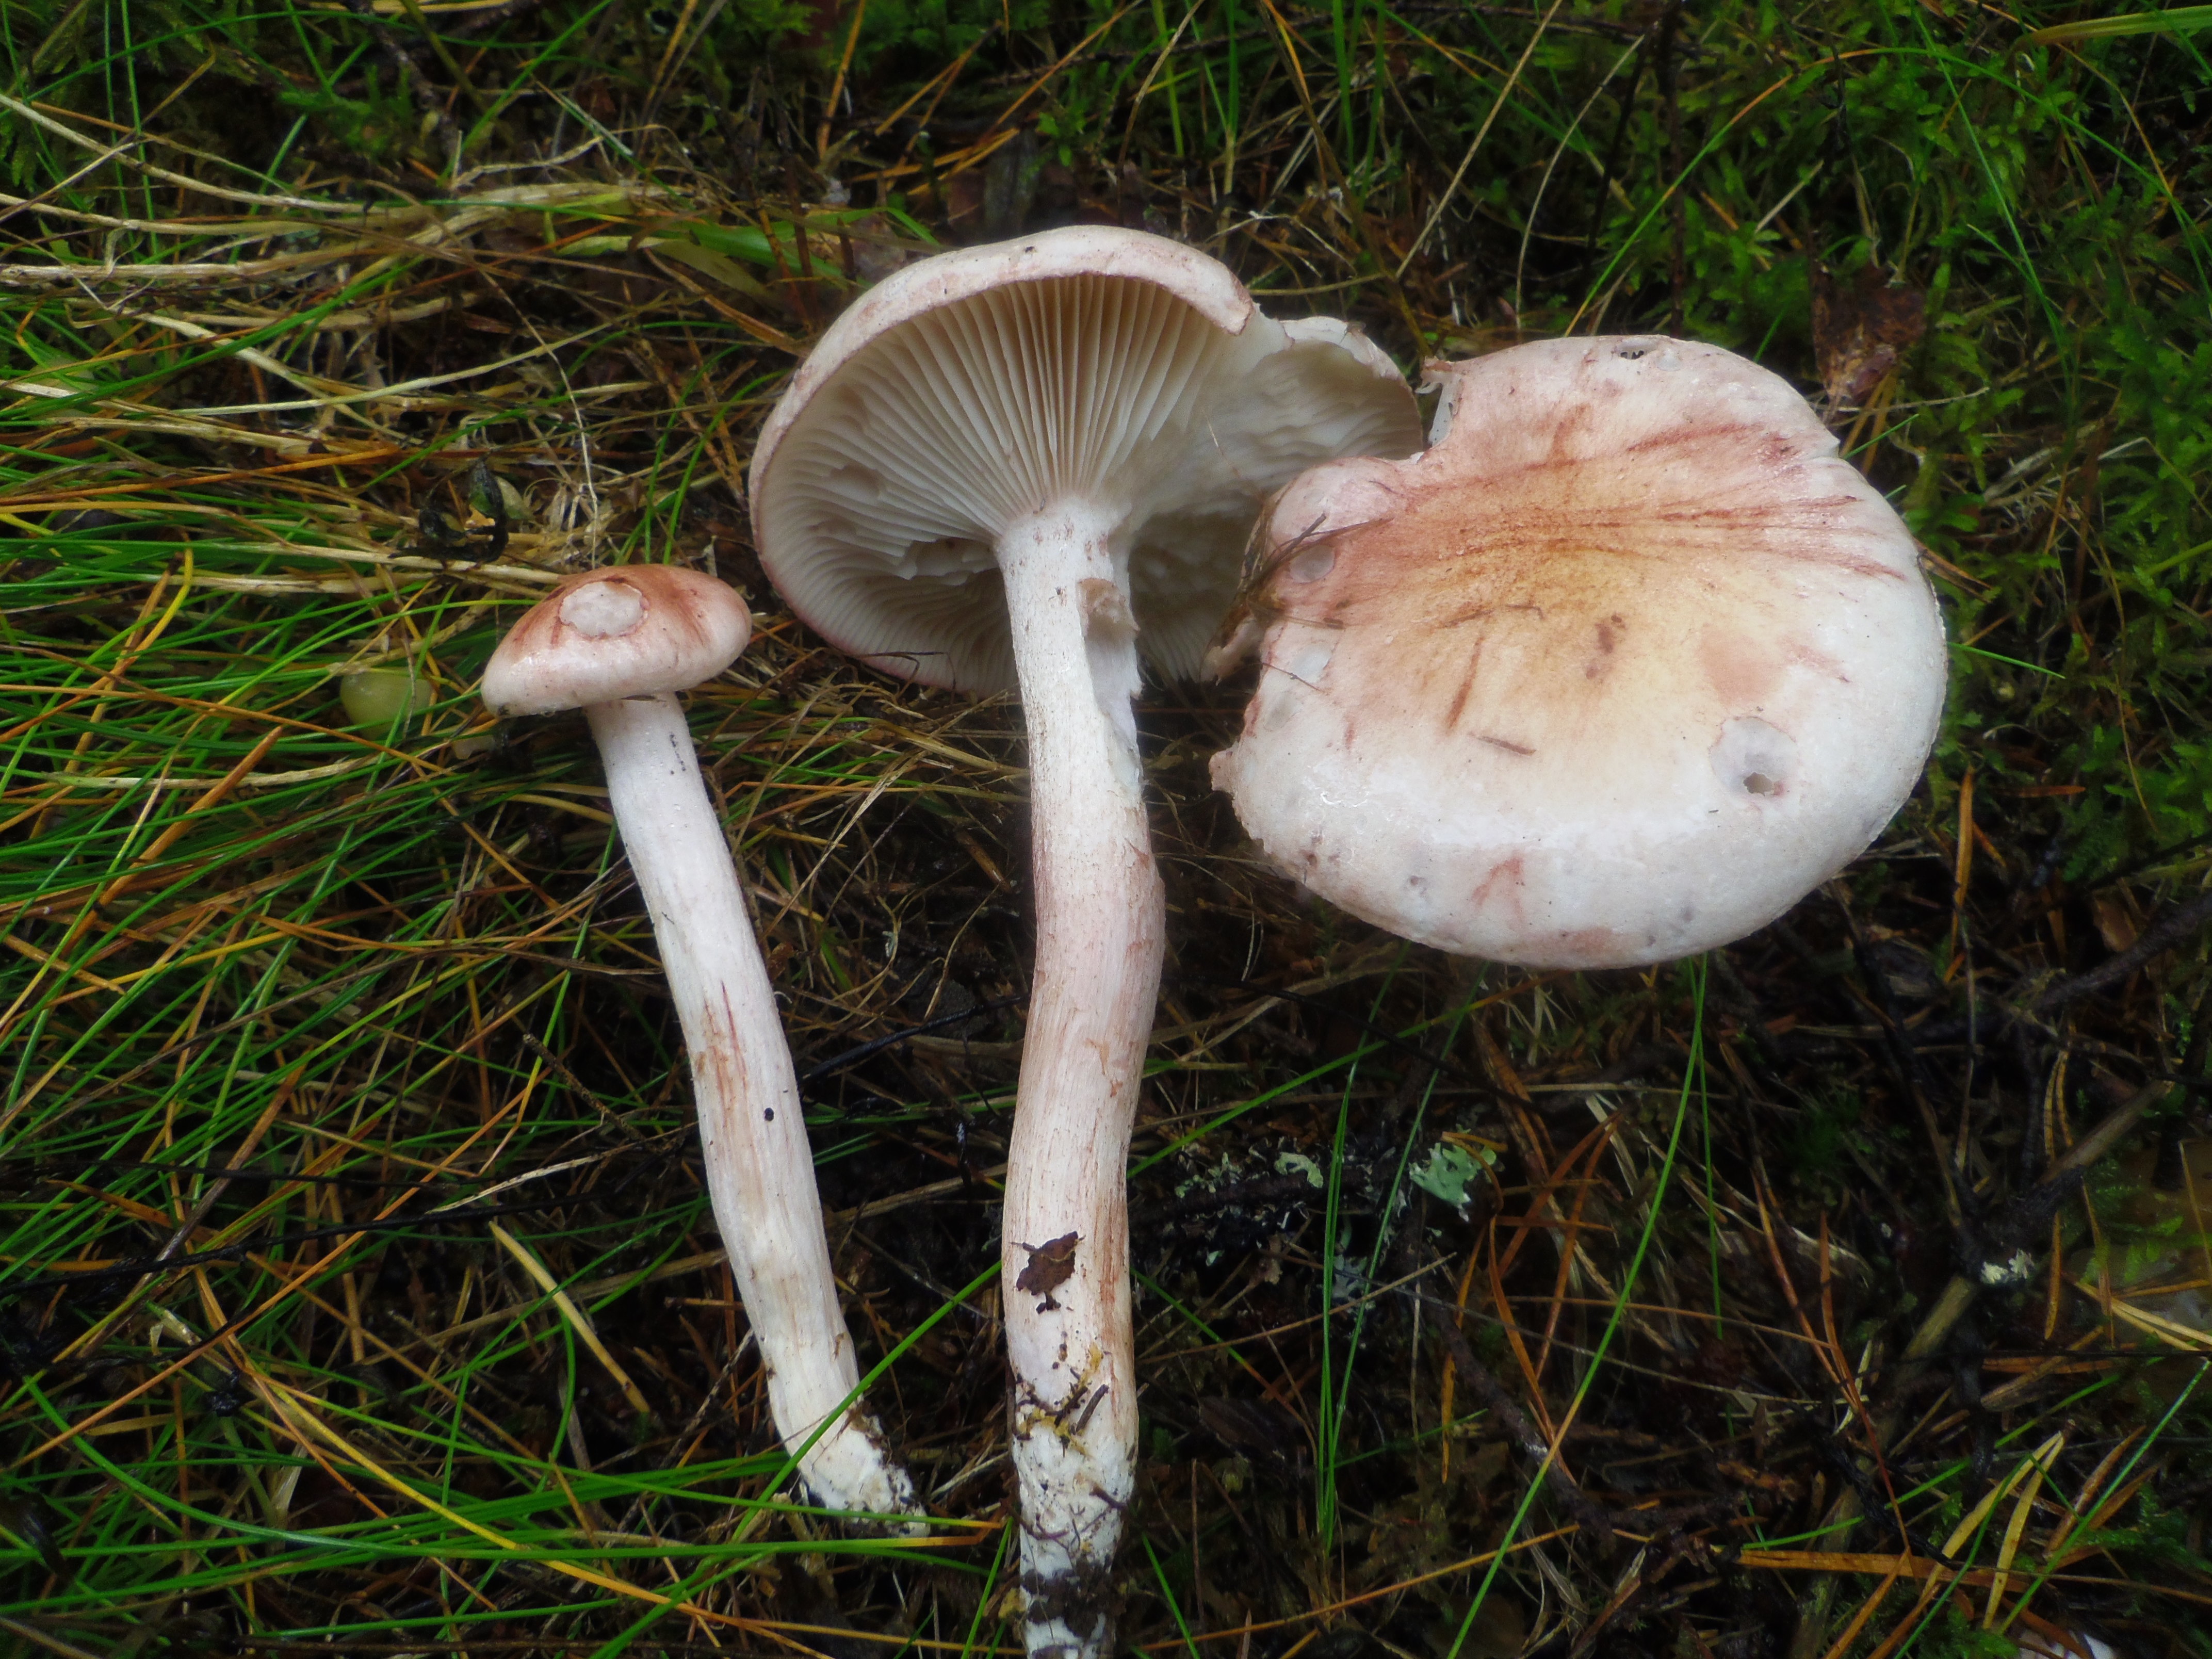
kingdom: Fungi
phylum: Basidiomycota
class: Agaricomycetes
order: Agaricales
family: Hygrophoraceae
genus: Hygrophorus
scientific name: Hygrophorus erubescens
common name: Blotched woodwax
